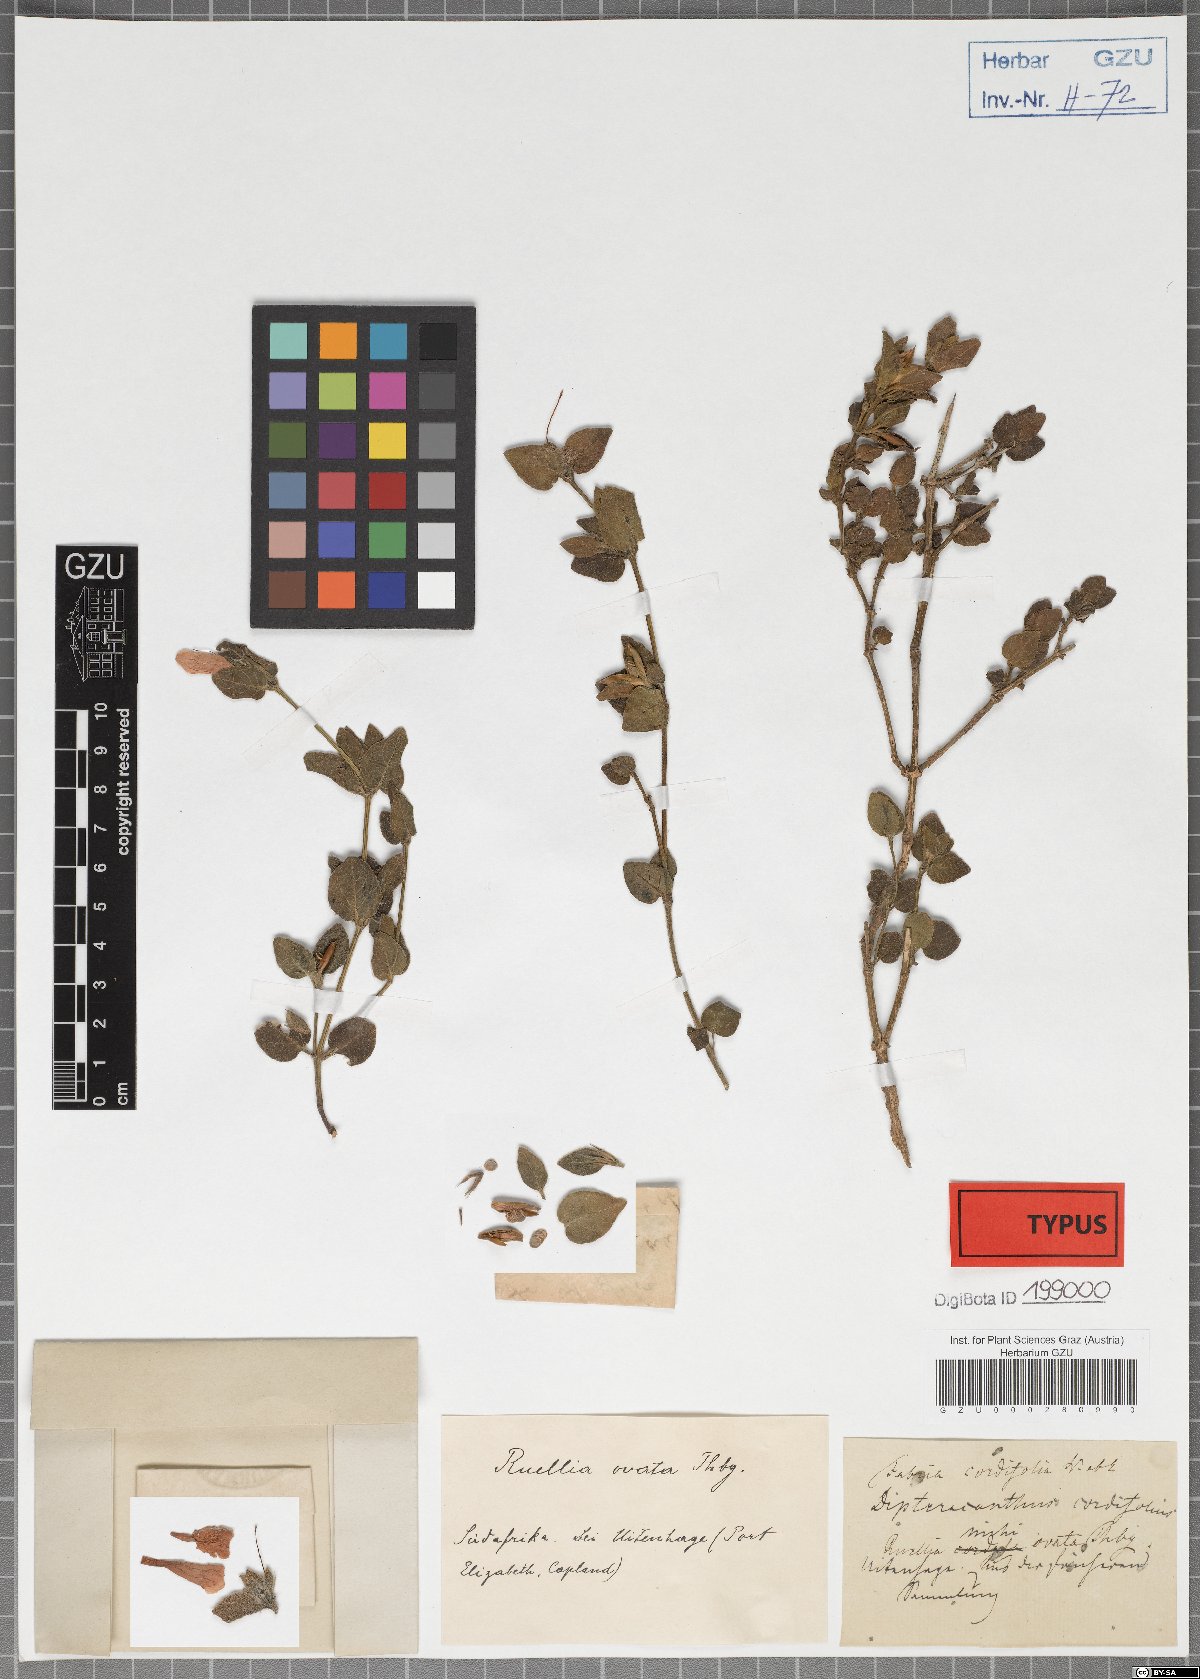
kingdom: Plantae
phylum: Tracheophyta
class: Magnoliopsida
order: Lamiales
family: Acanthaceae
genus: Ruellia
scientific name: Ruellia cordata
